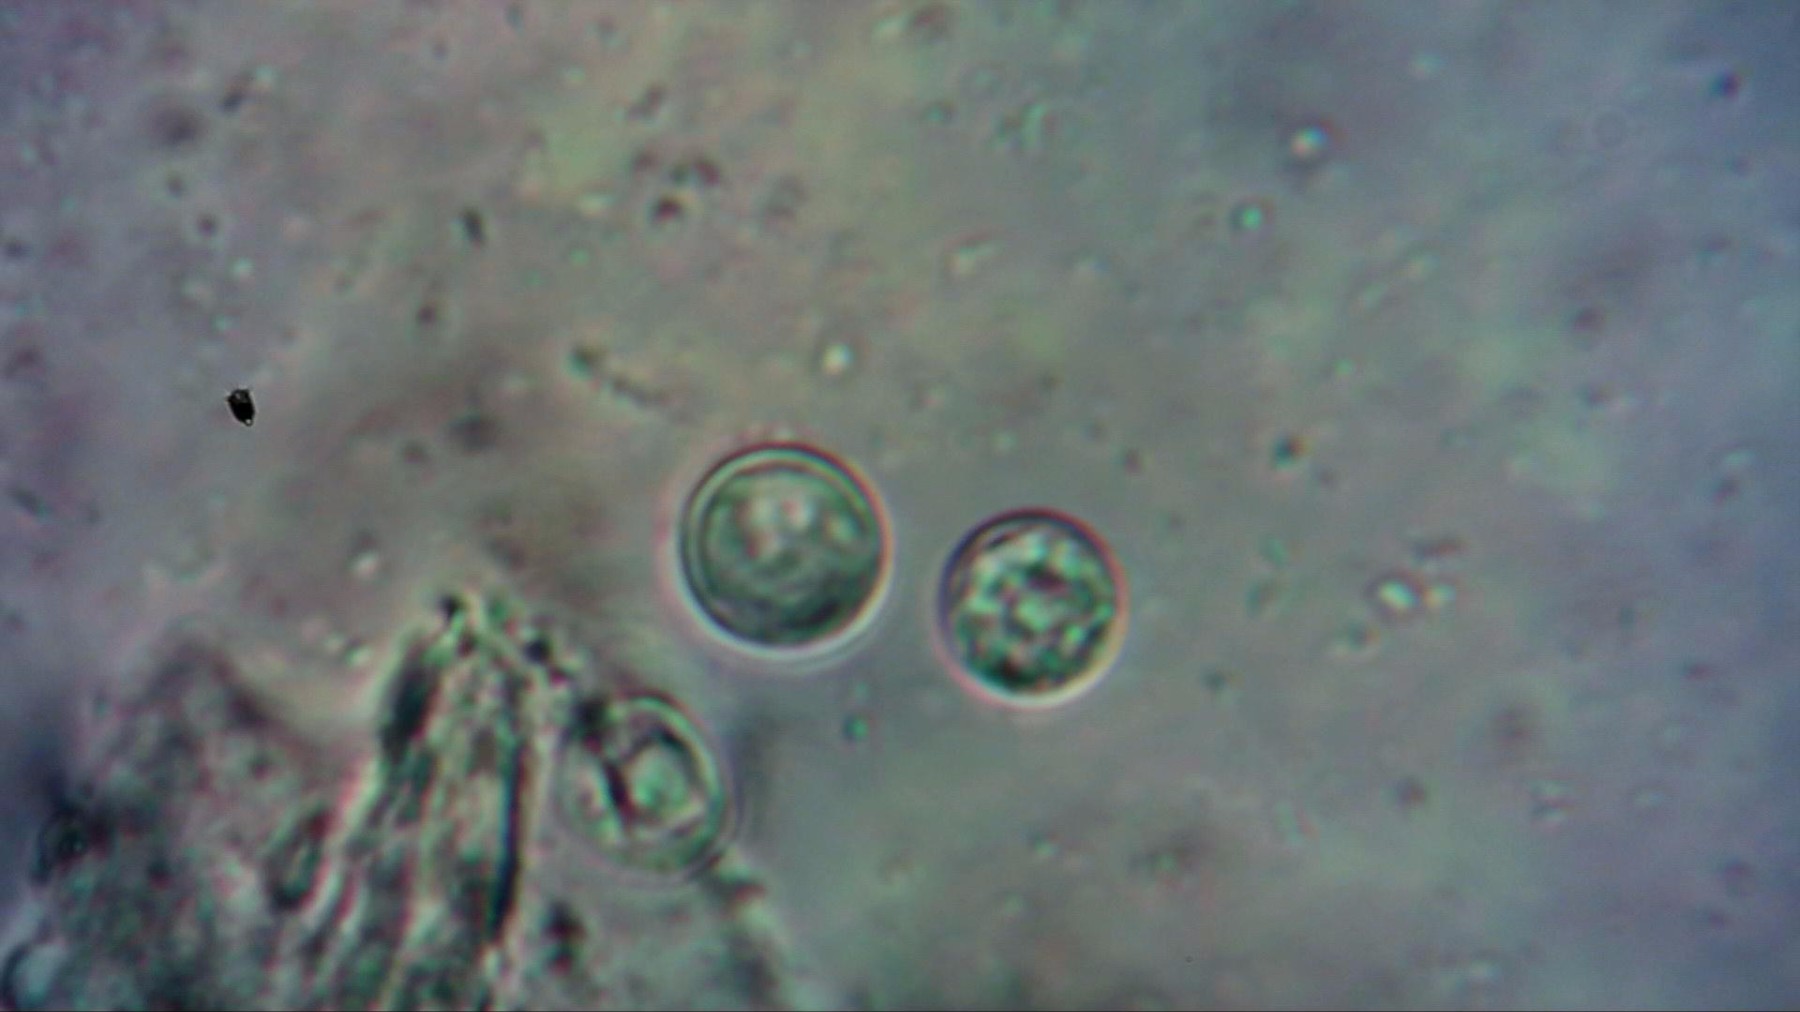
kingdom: Fungi
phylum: Basidiomycota
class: Agaricomycetes
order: Agaricales
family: Lyophyllaceae
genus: Lyophyllum
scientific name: Lyophyllum decastes
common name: røggrå gråblad
